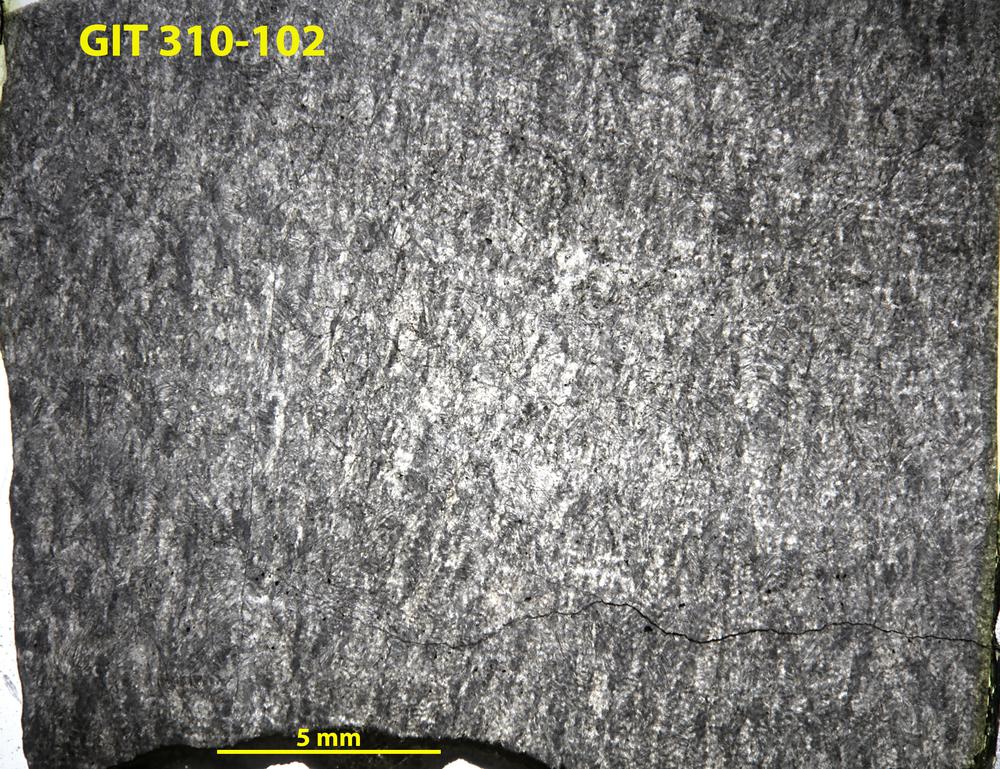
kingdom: Animalia
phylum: Porifera
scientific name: Porifera
